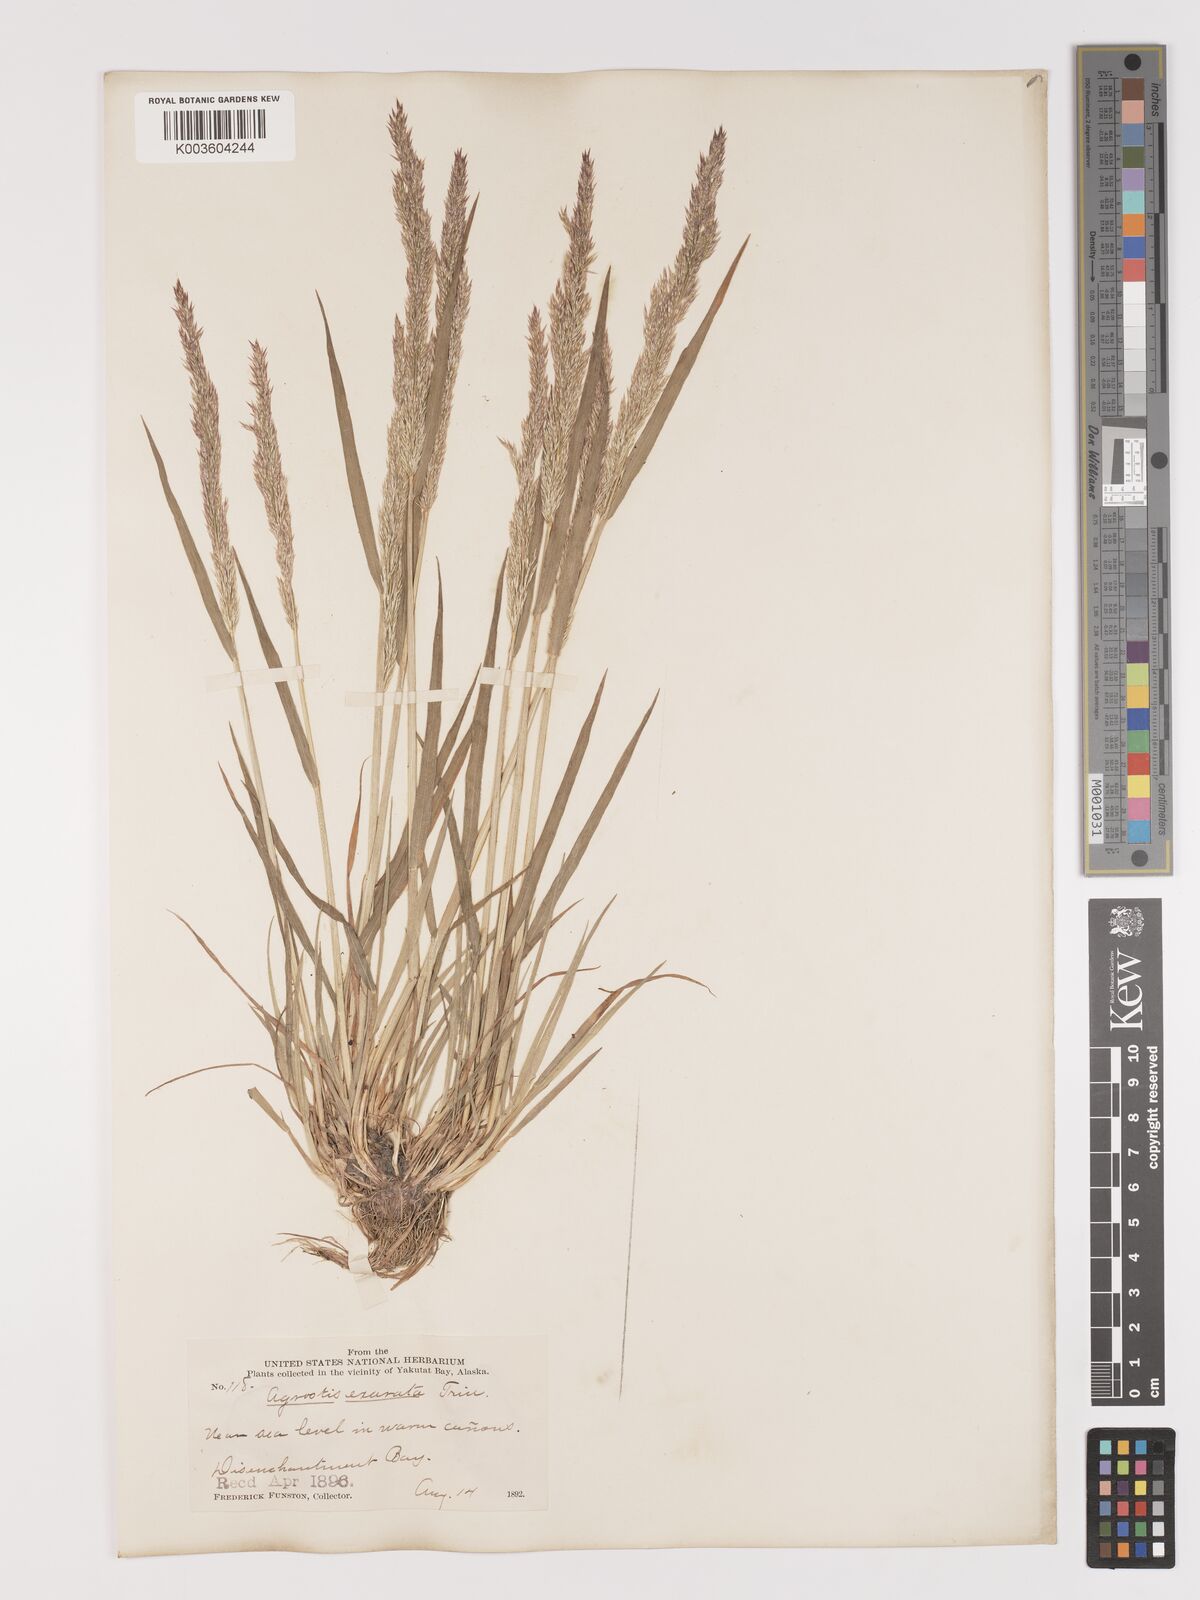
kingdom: Plantae
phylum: Tracheophyta
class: Liliopsida
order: Poales
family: Poaceae
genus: Agrostis
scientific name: Agrostis exarata
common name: Spike bent
